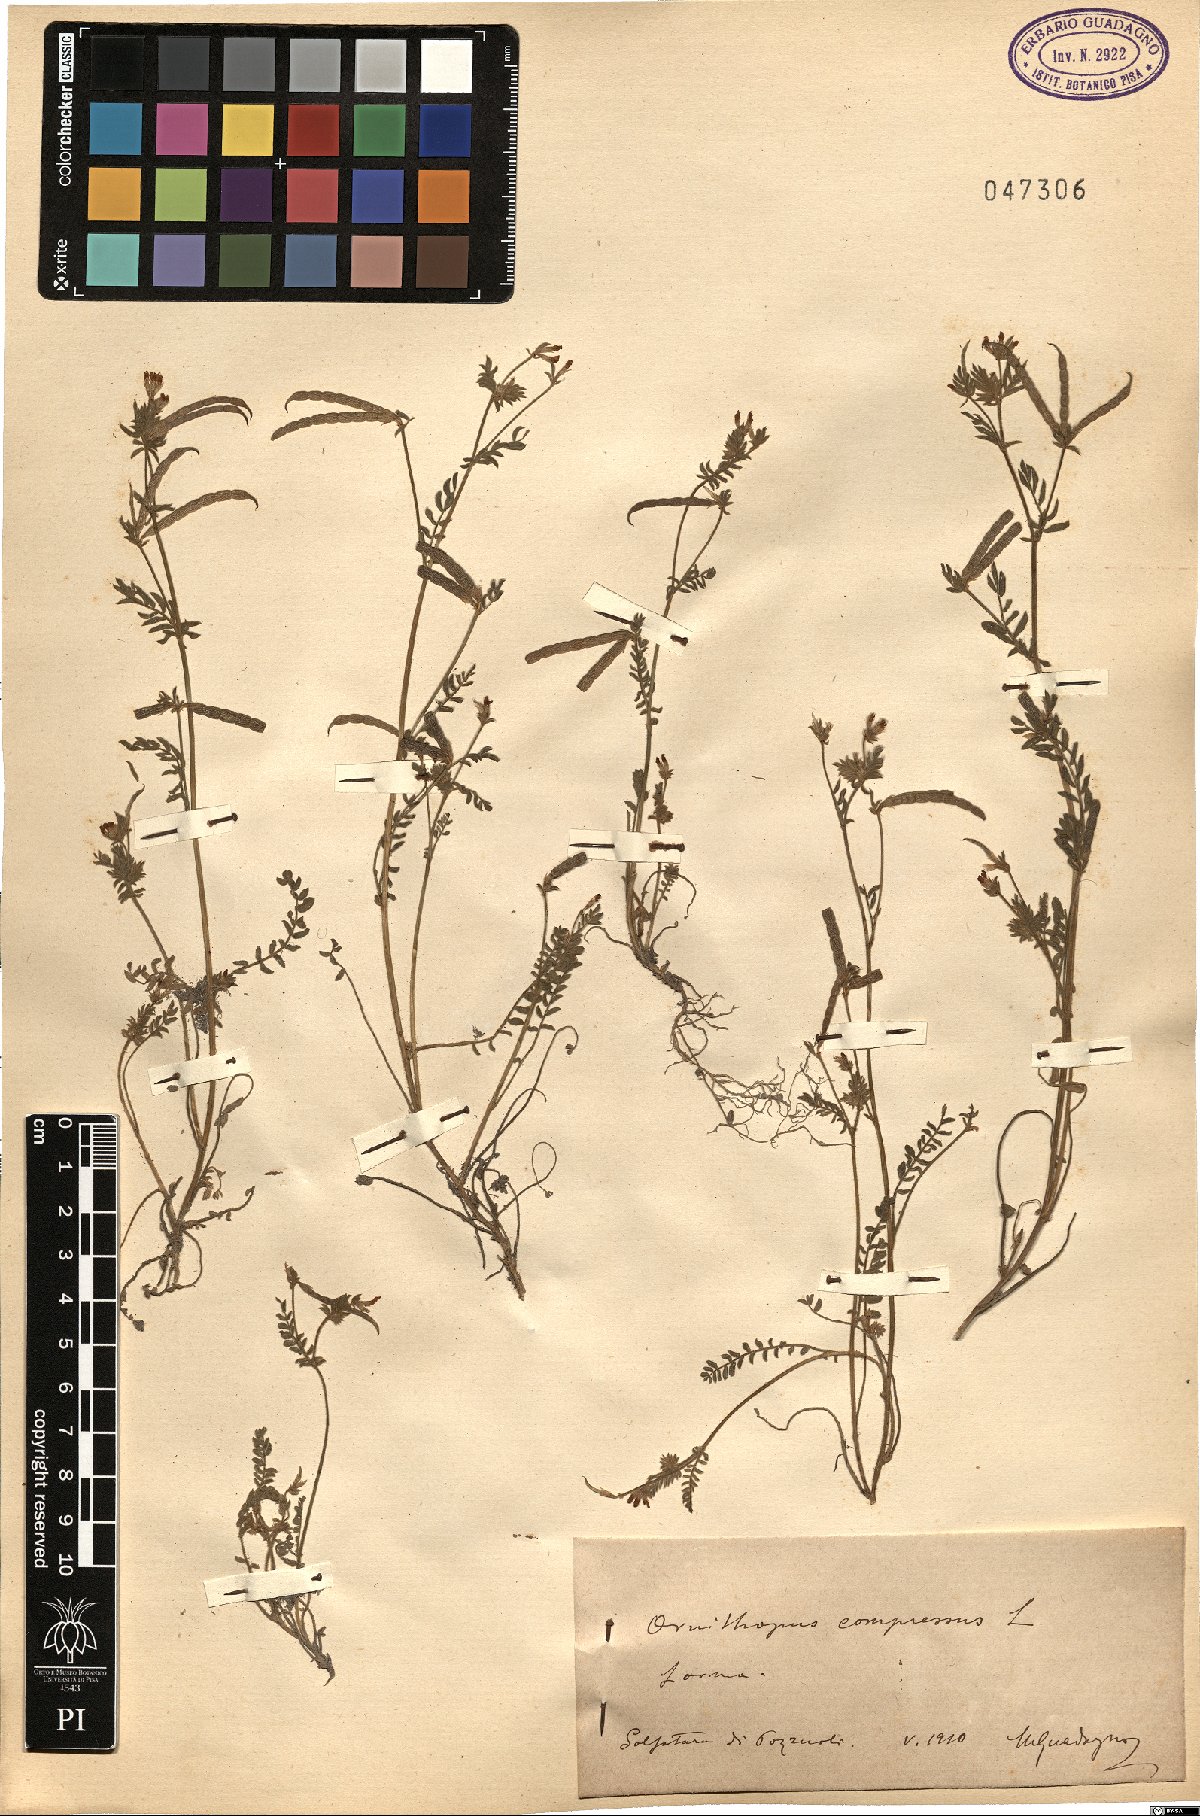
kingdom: Plantae
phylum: Tracheophyta
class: Magnoliopsida
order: Fabales
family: Fabaceae
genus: Ornithopus
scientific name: Ornithopus compressus
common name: Yellow serradella
